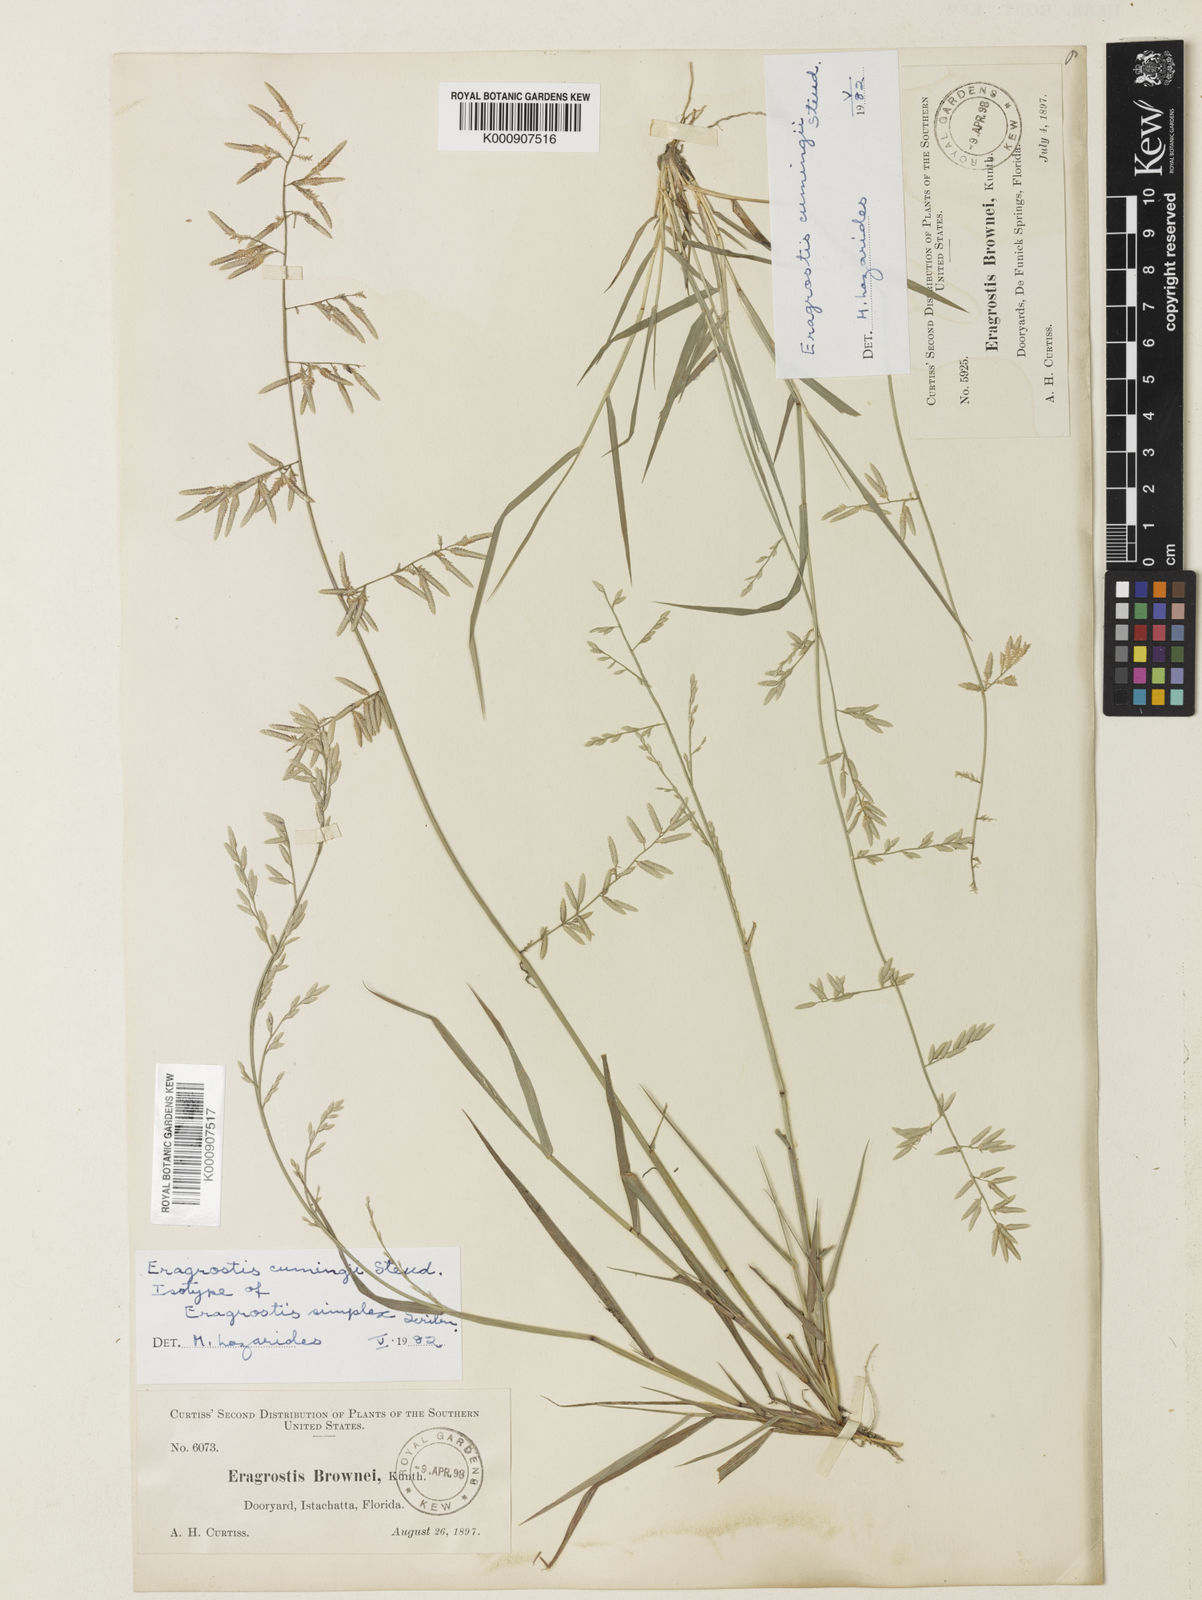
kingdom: Plantae
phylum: Tracheophyta
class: Liliopsida
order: Poales
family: Poaceae
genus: Eragrostis
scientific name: Eragrostis cumingii
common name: Cuming's lovegrass
